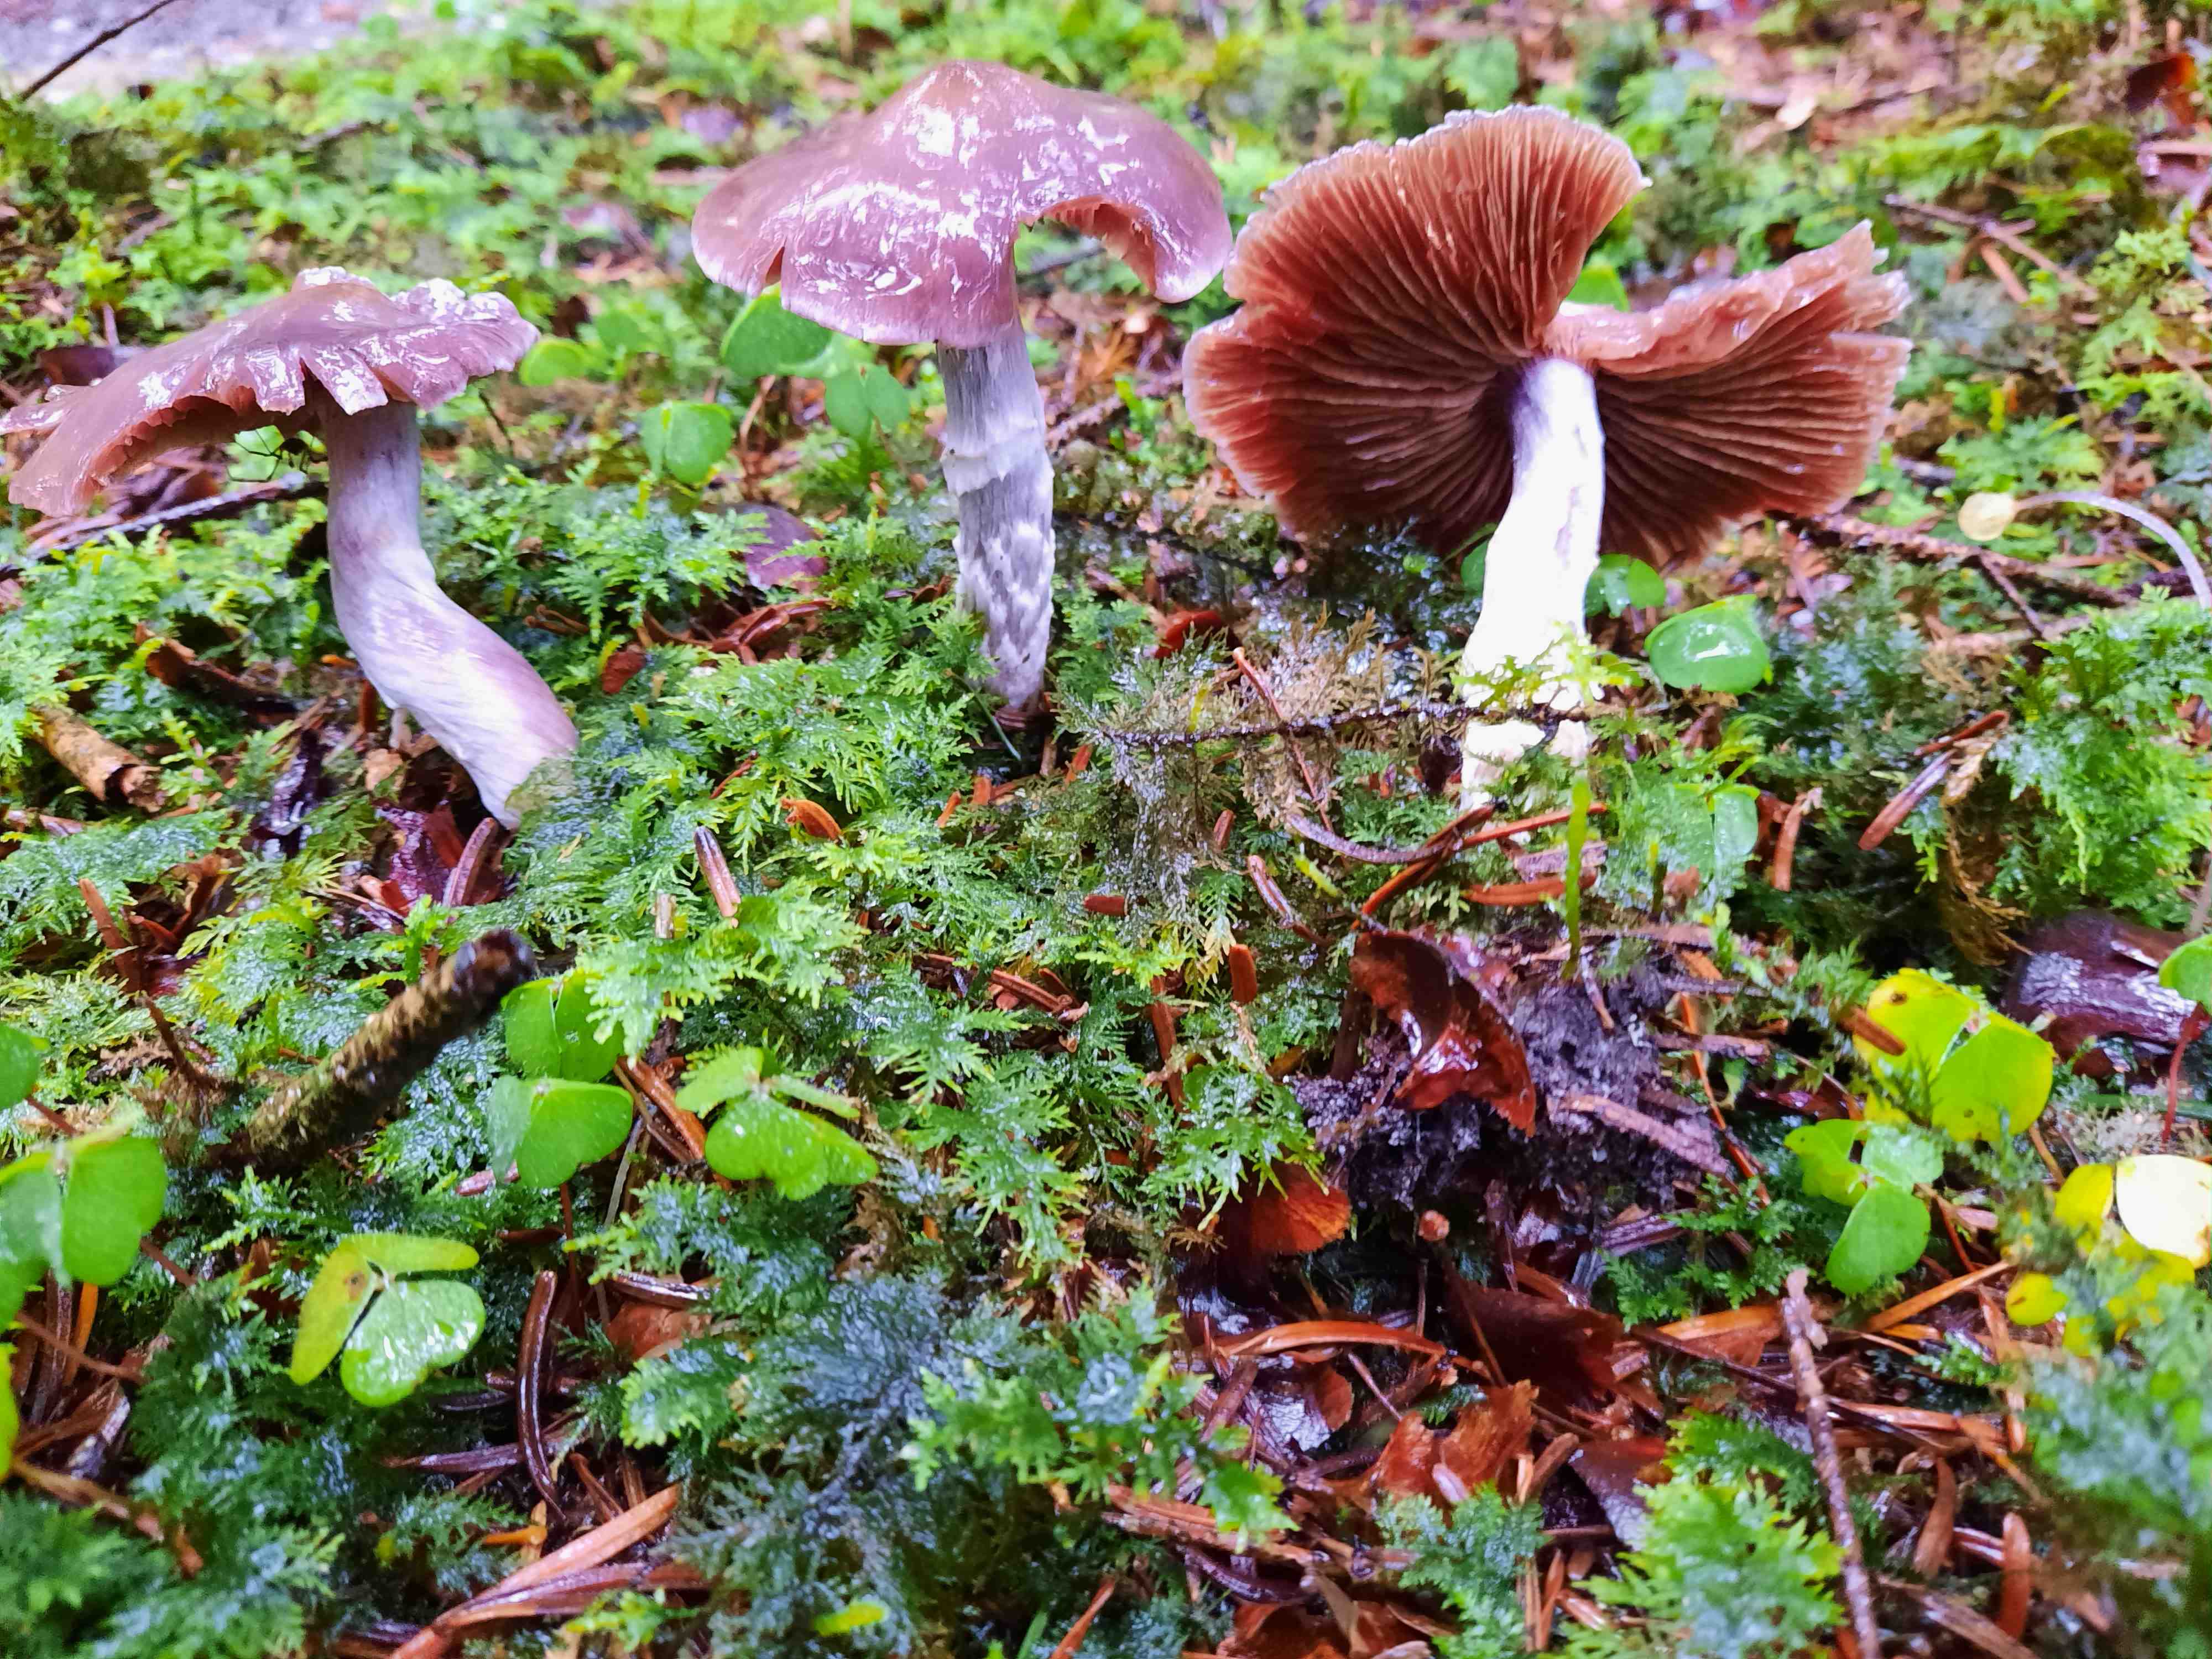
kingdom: Fungi
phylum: Basidiomycota
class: Agaricomycetes
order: Agaricales
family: Cortinariaceae
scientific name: Cortinariaceae
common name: slørhatfamilien
